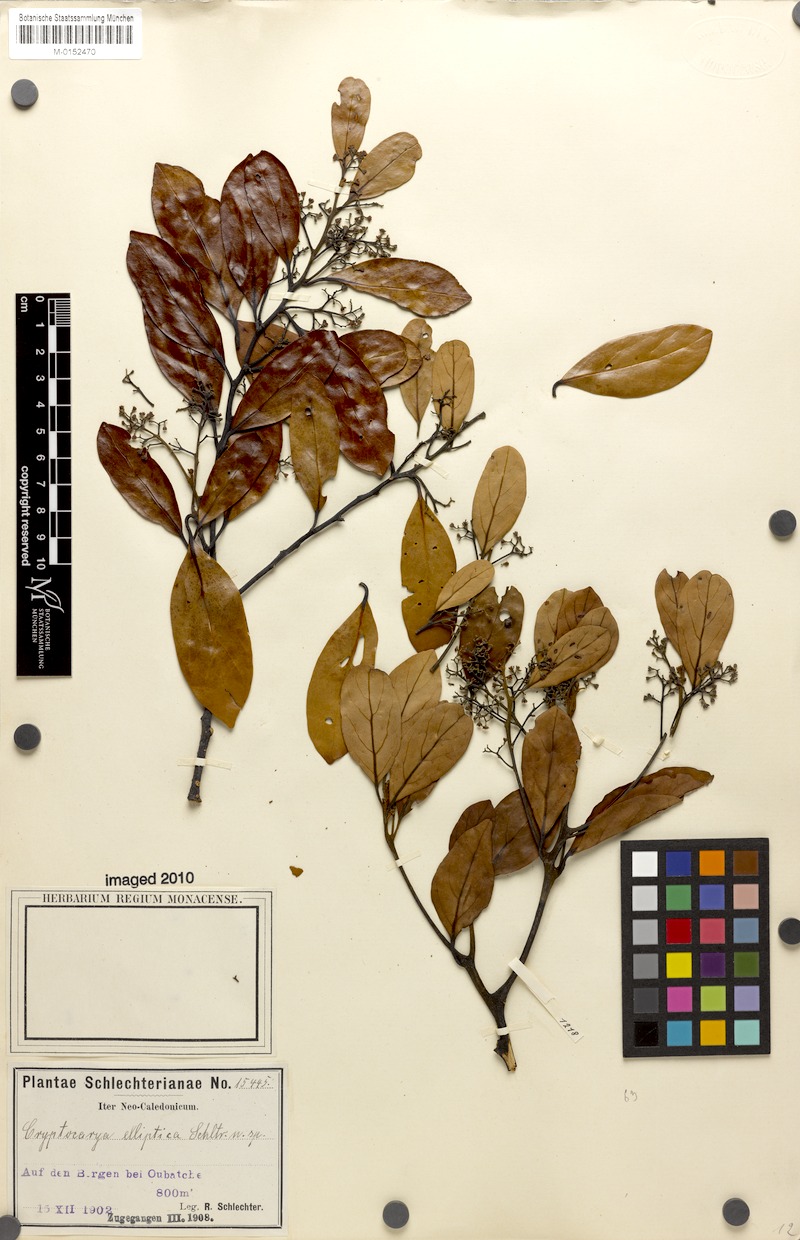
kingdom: Plantae
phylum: Tracheophyta
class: Magnoliopsida
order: Laurales
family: Lauraceae
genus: Cryptocarya
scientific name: Cryptocarya elliptica
